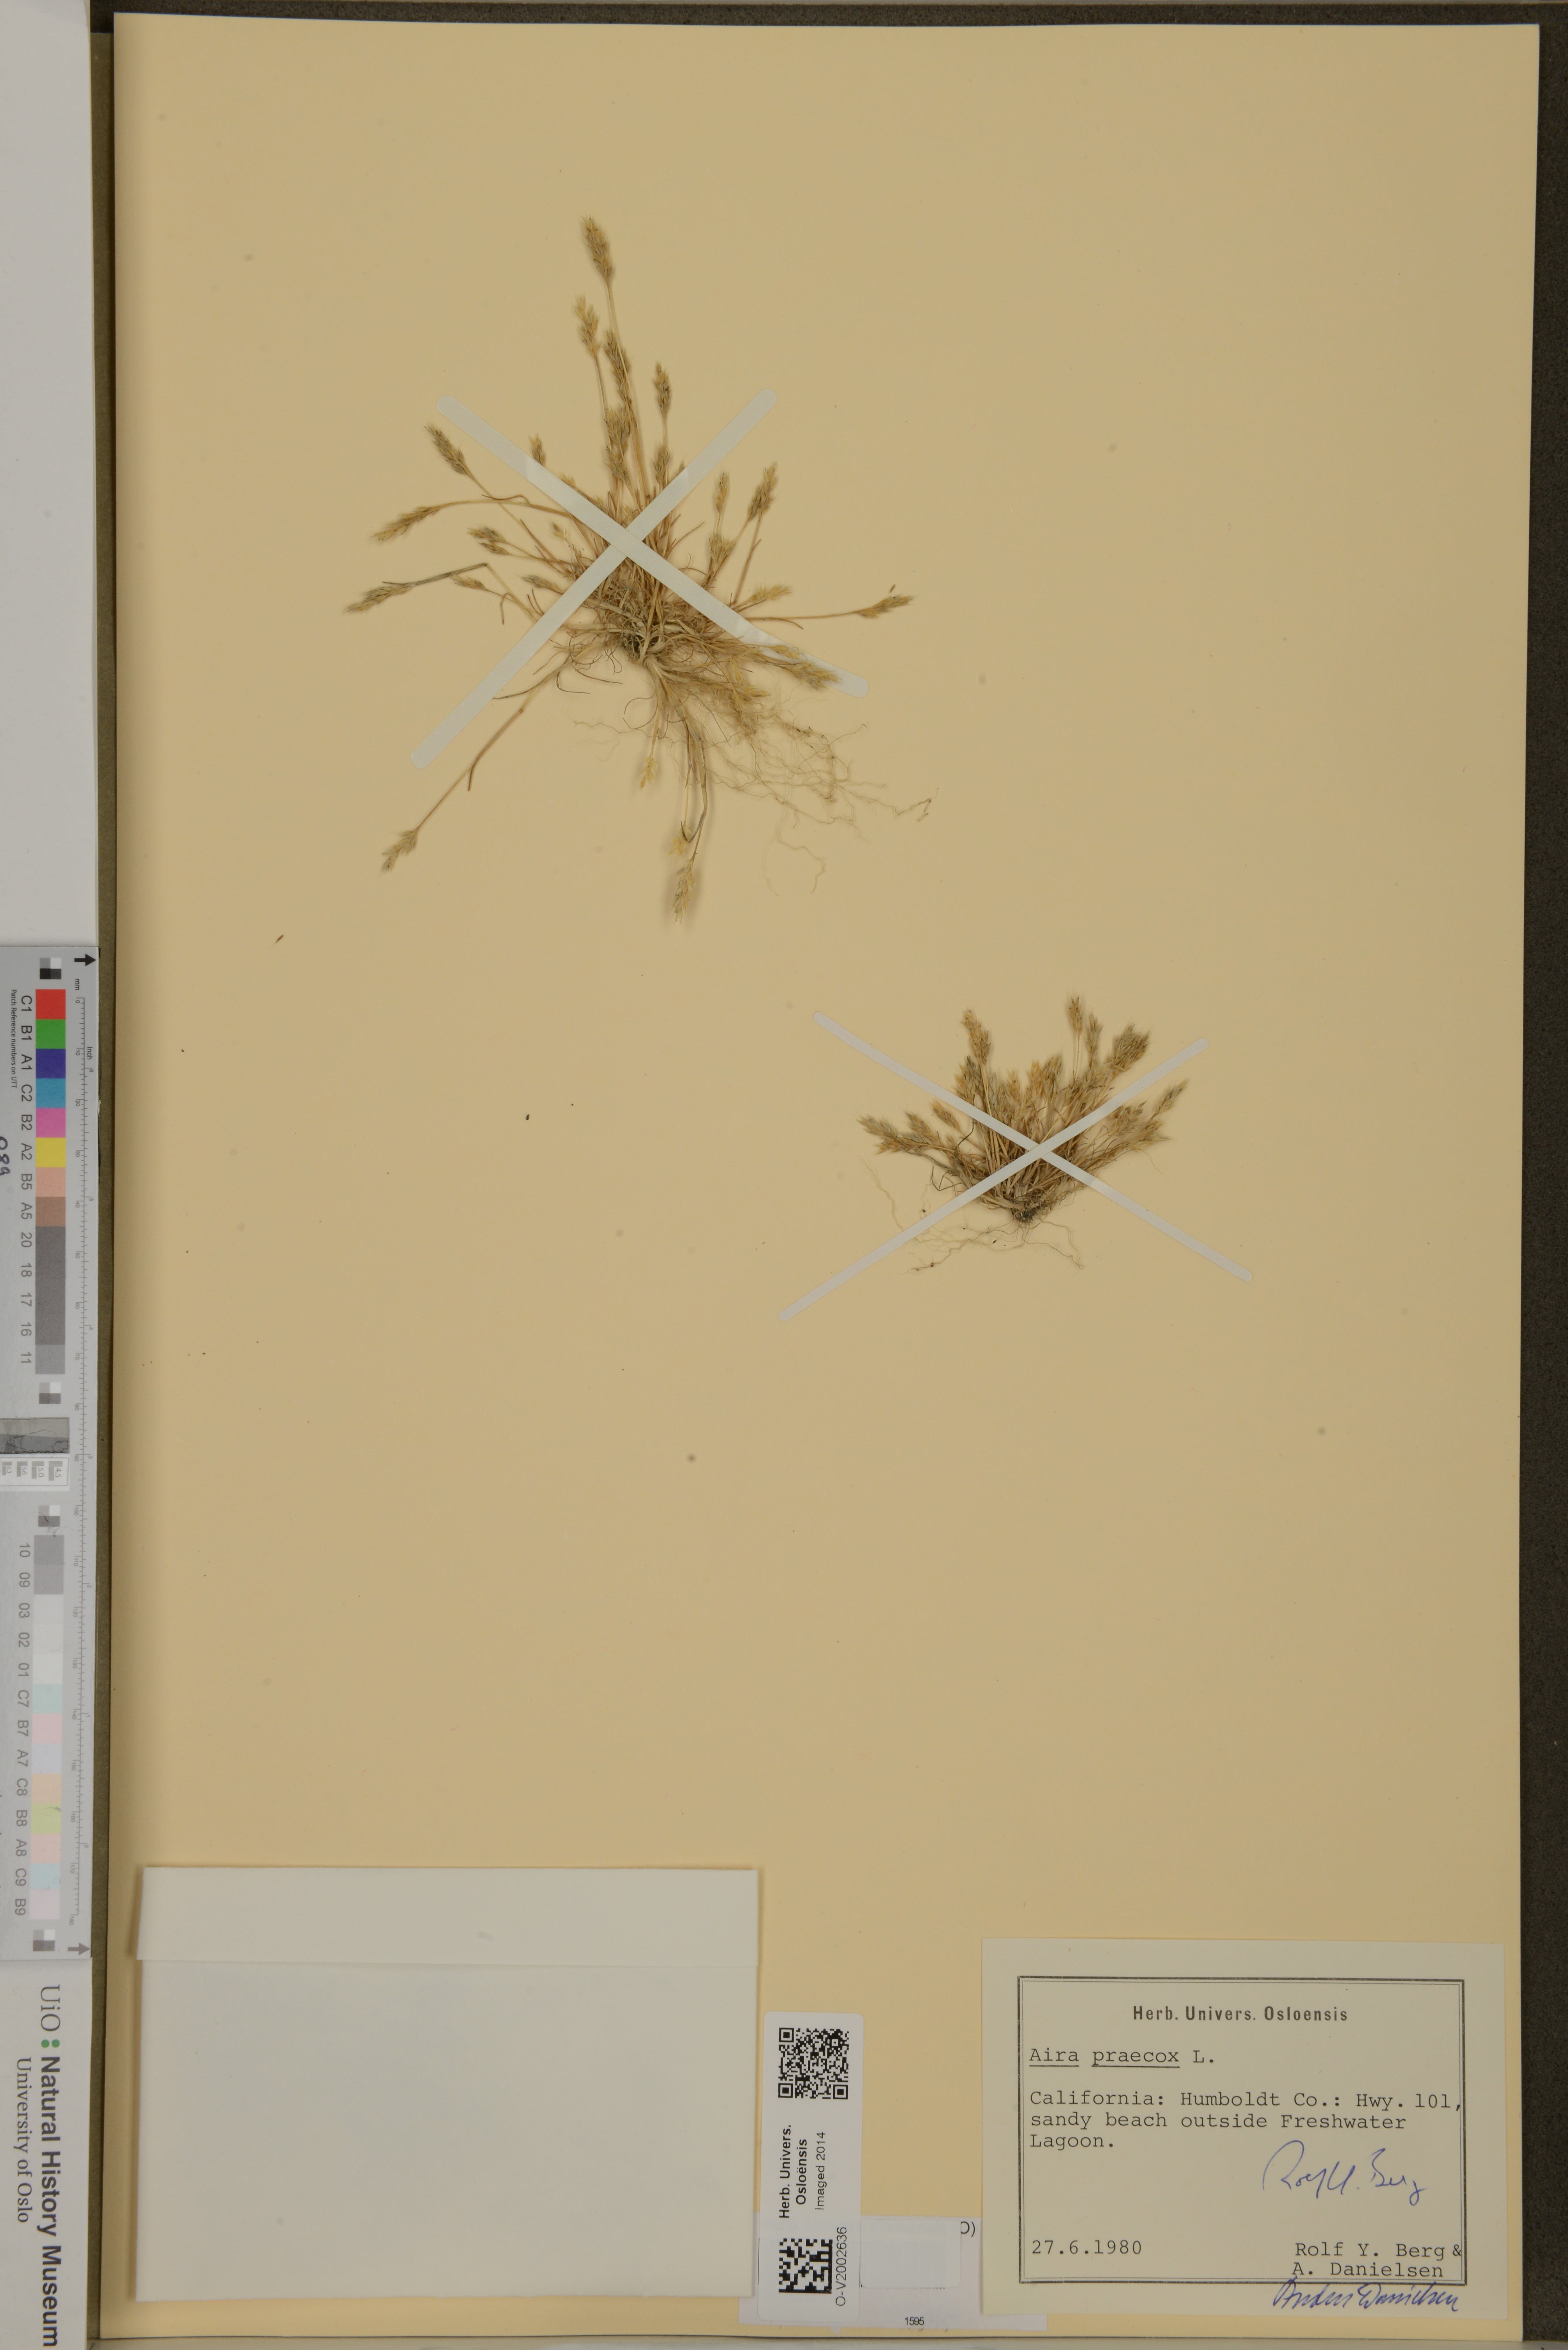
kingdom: Plantae
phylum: Tracheophyta
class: Liliopsida
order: Poales
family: Poaceae
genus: Aira
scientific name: Aira praecox
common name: Early hair-grass
